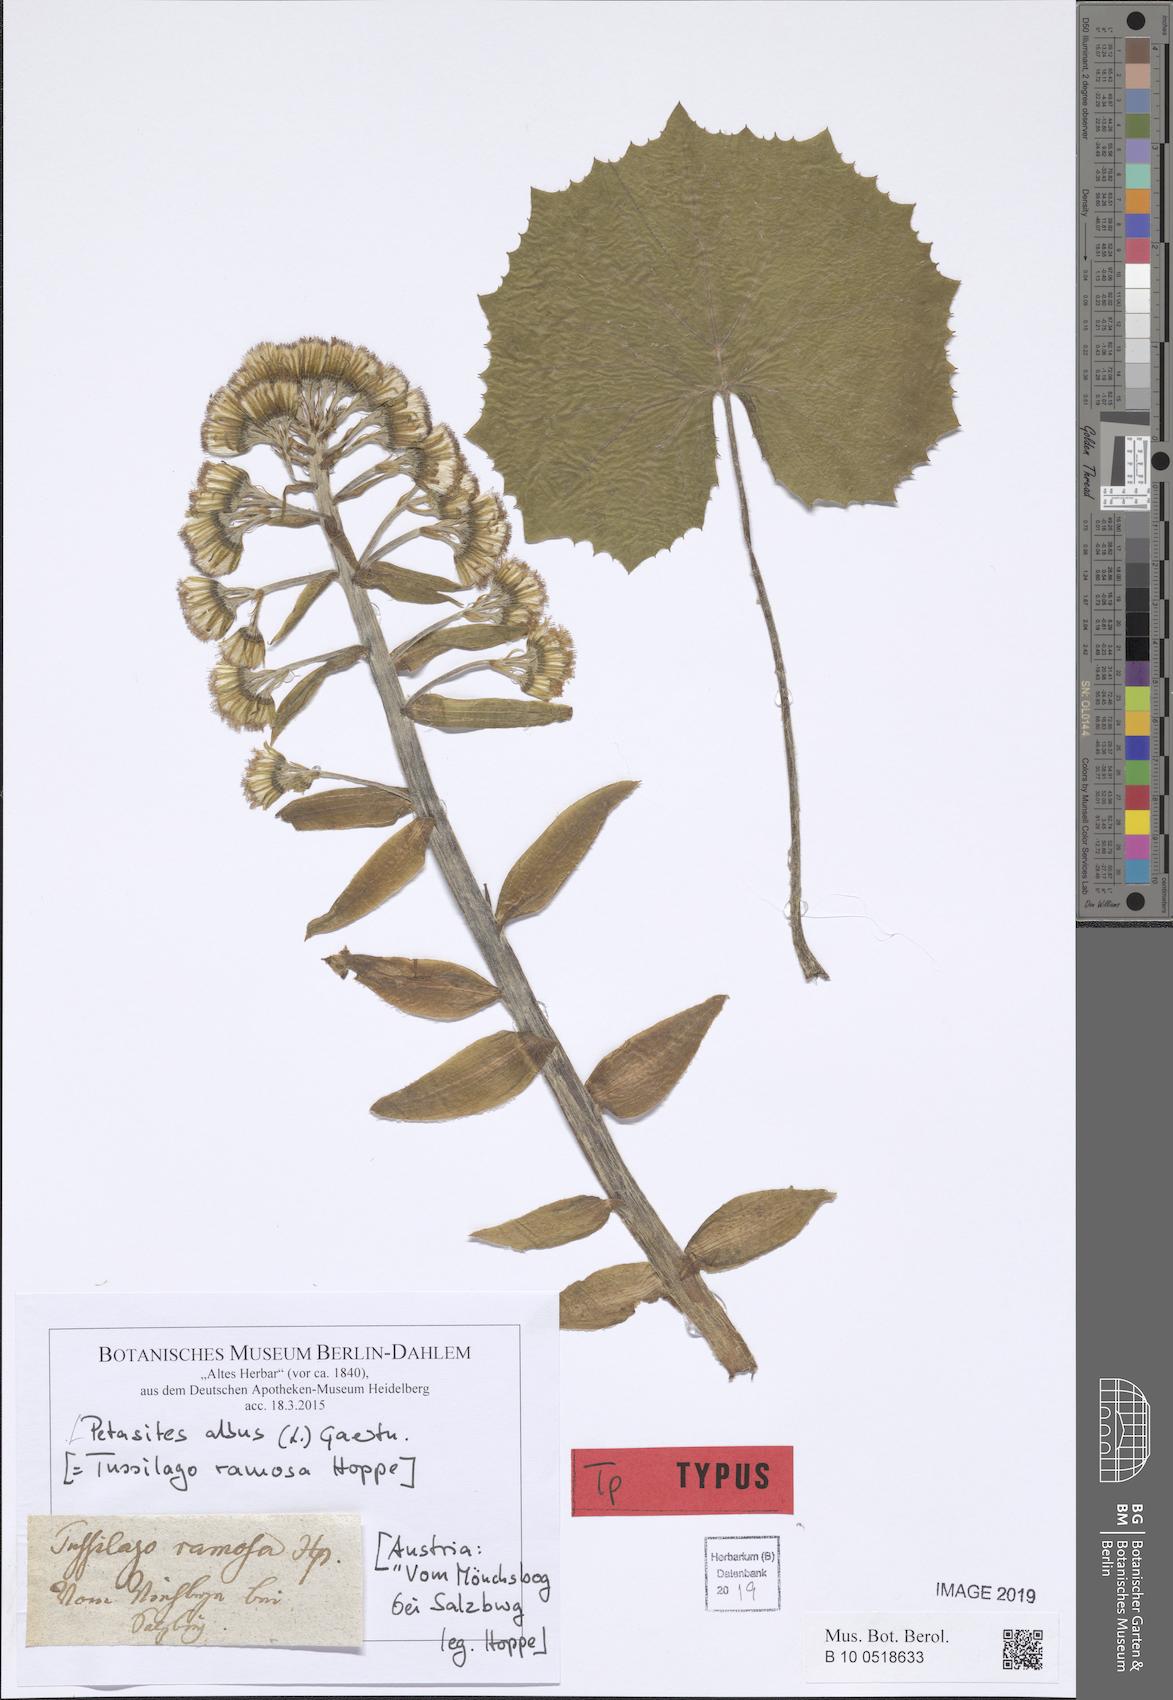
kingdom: Plantae
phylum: Tracheophyta
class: Magnoliopsida
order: Asterales
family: Asteraceae
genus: Petasites
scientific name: Petasites albus
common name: White butterbur
